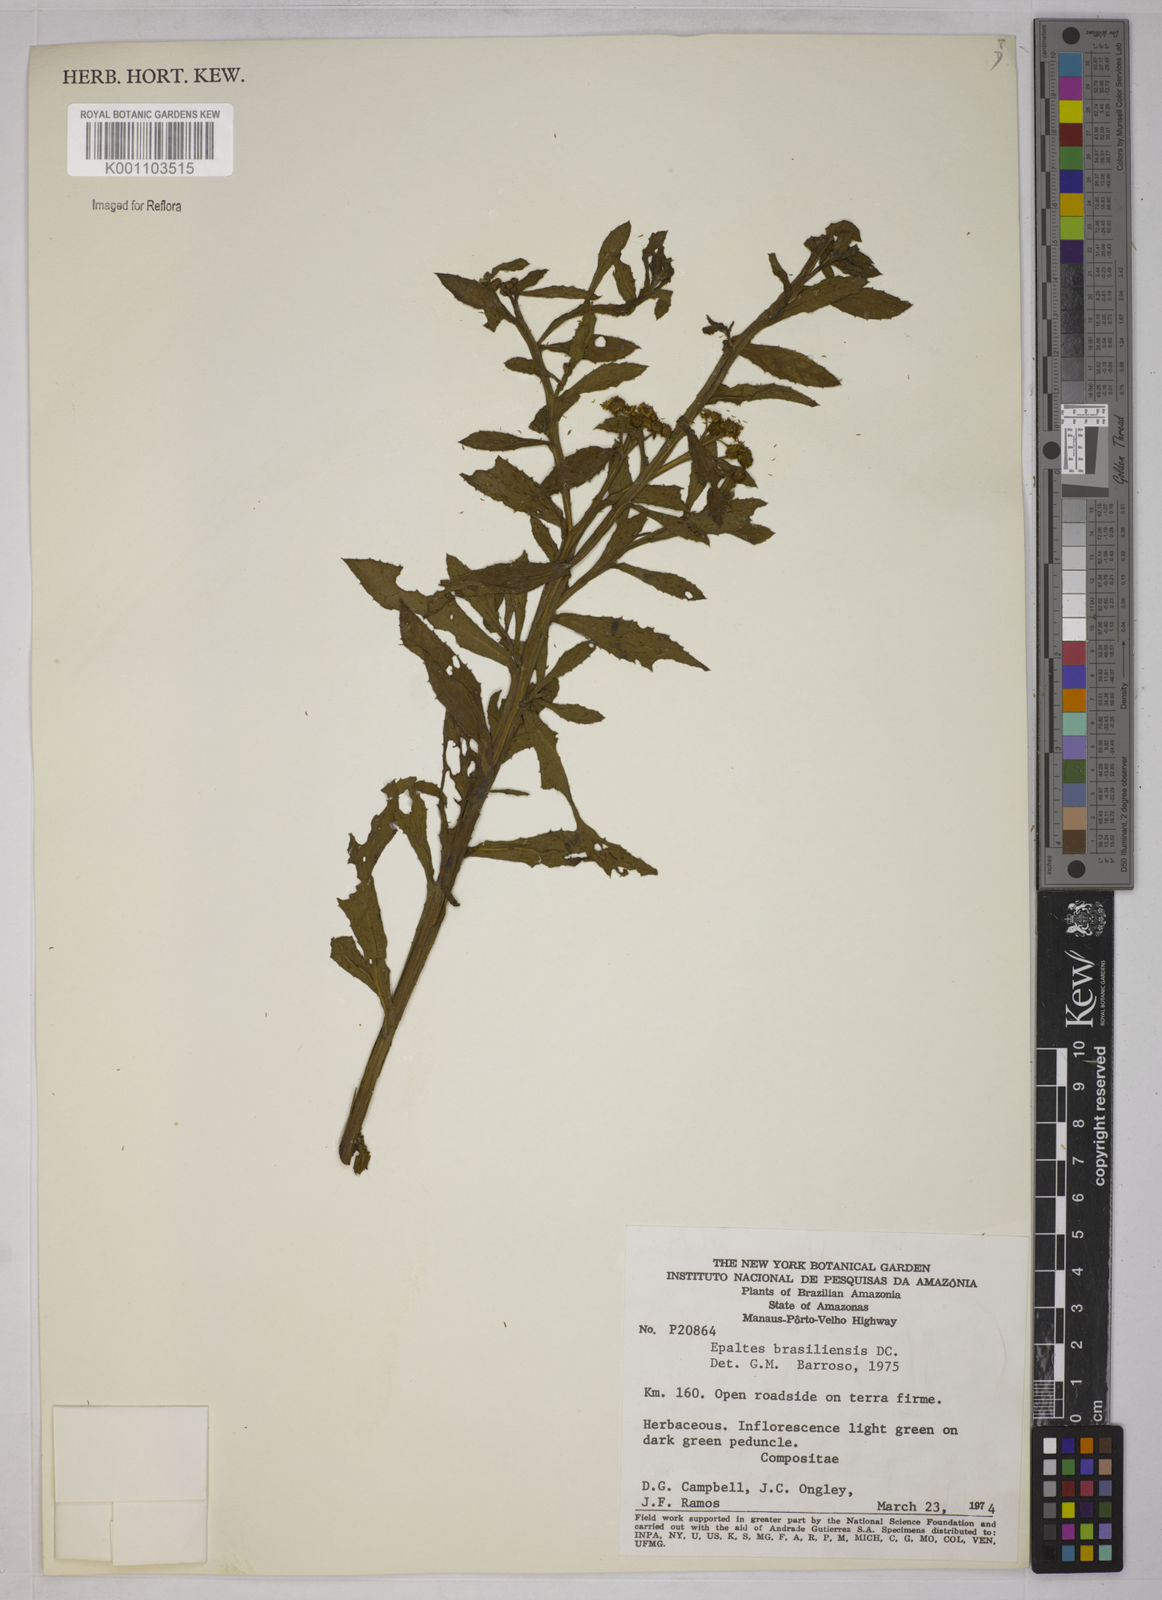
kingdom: Plantae
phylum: Tracheophyta
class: Magnoliopsida
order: Asterales
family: Asteraceae
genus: Epaltes
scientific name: Epaltes brasiliensis
